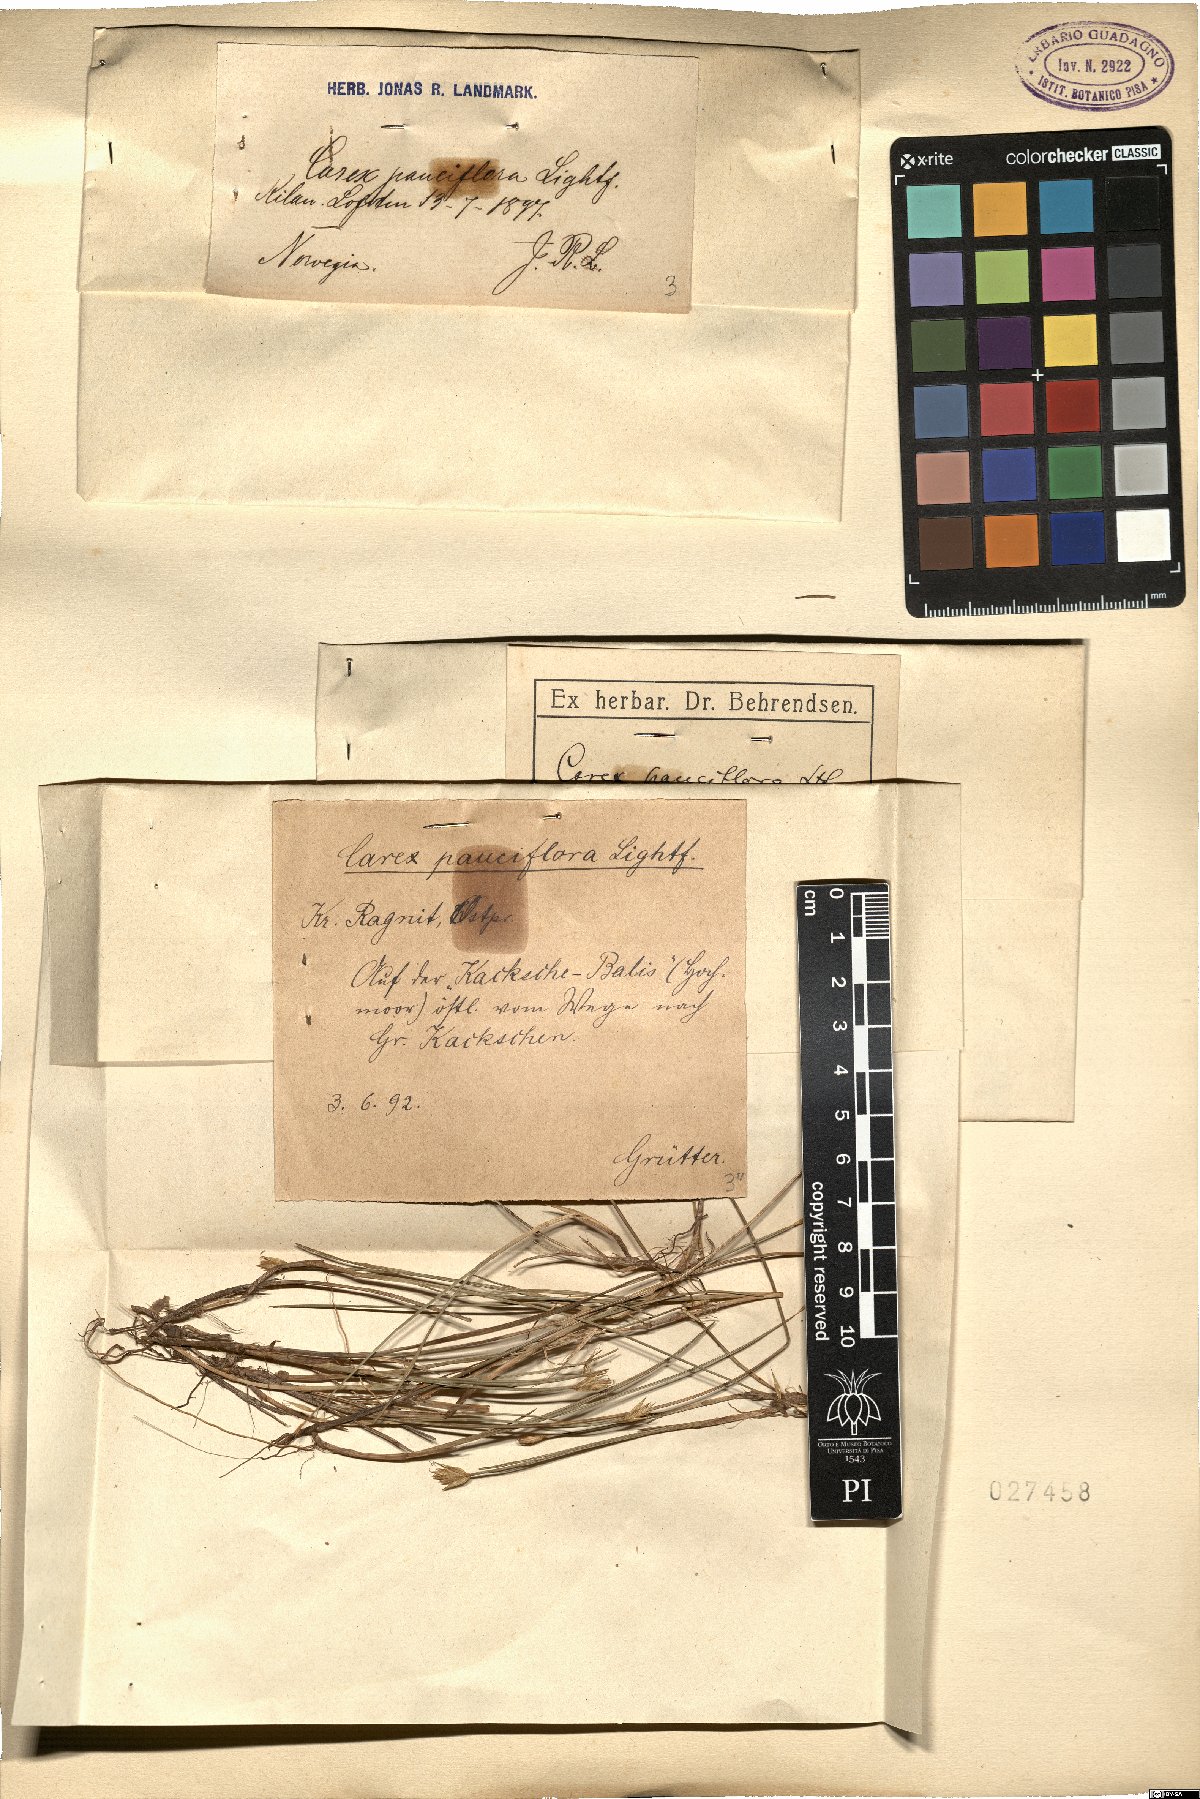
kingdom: Plantae
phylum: Tracheophyta
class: Liliopsida
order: Poales
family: Cyperaceae
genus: Carex
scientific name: Carex pauciflora
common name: Few-flowered sedge
